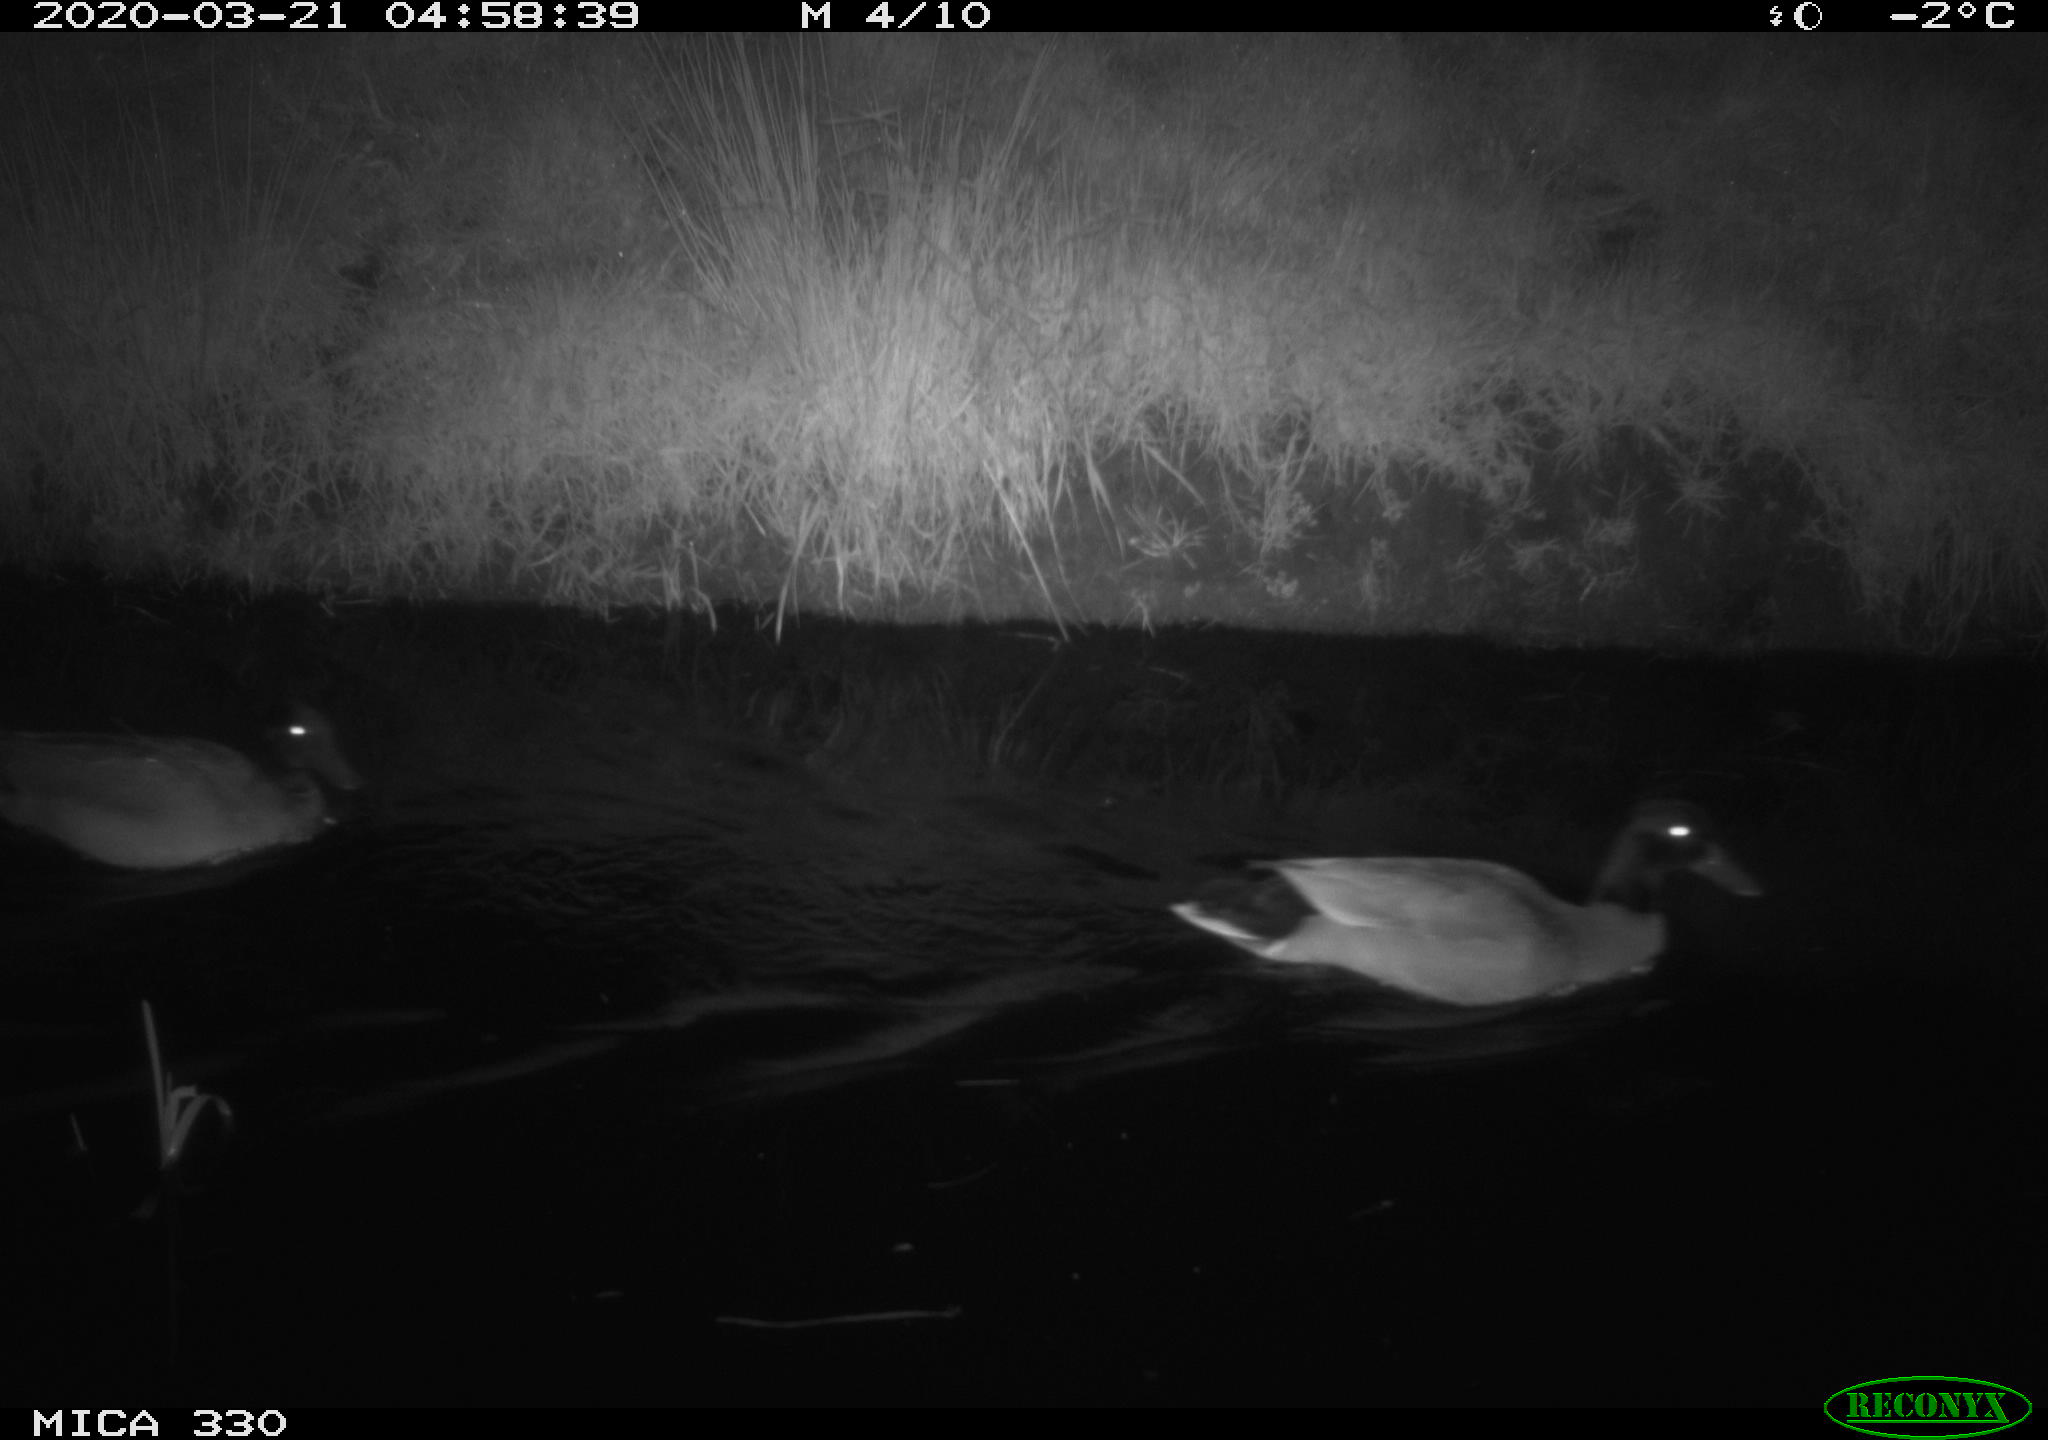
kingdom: Animalia
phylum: Chordata
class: Aves
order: Anseriformes
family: Anatidae
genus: Anas
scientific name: Anas platyrhynchos
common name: Mallard
